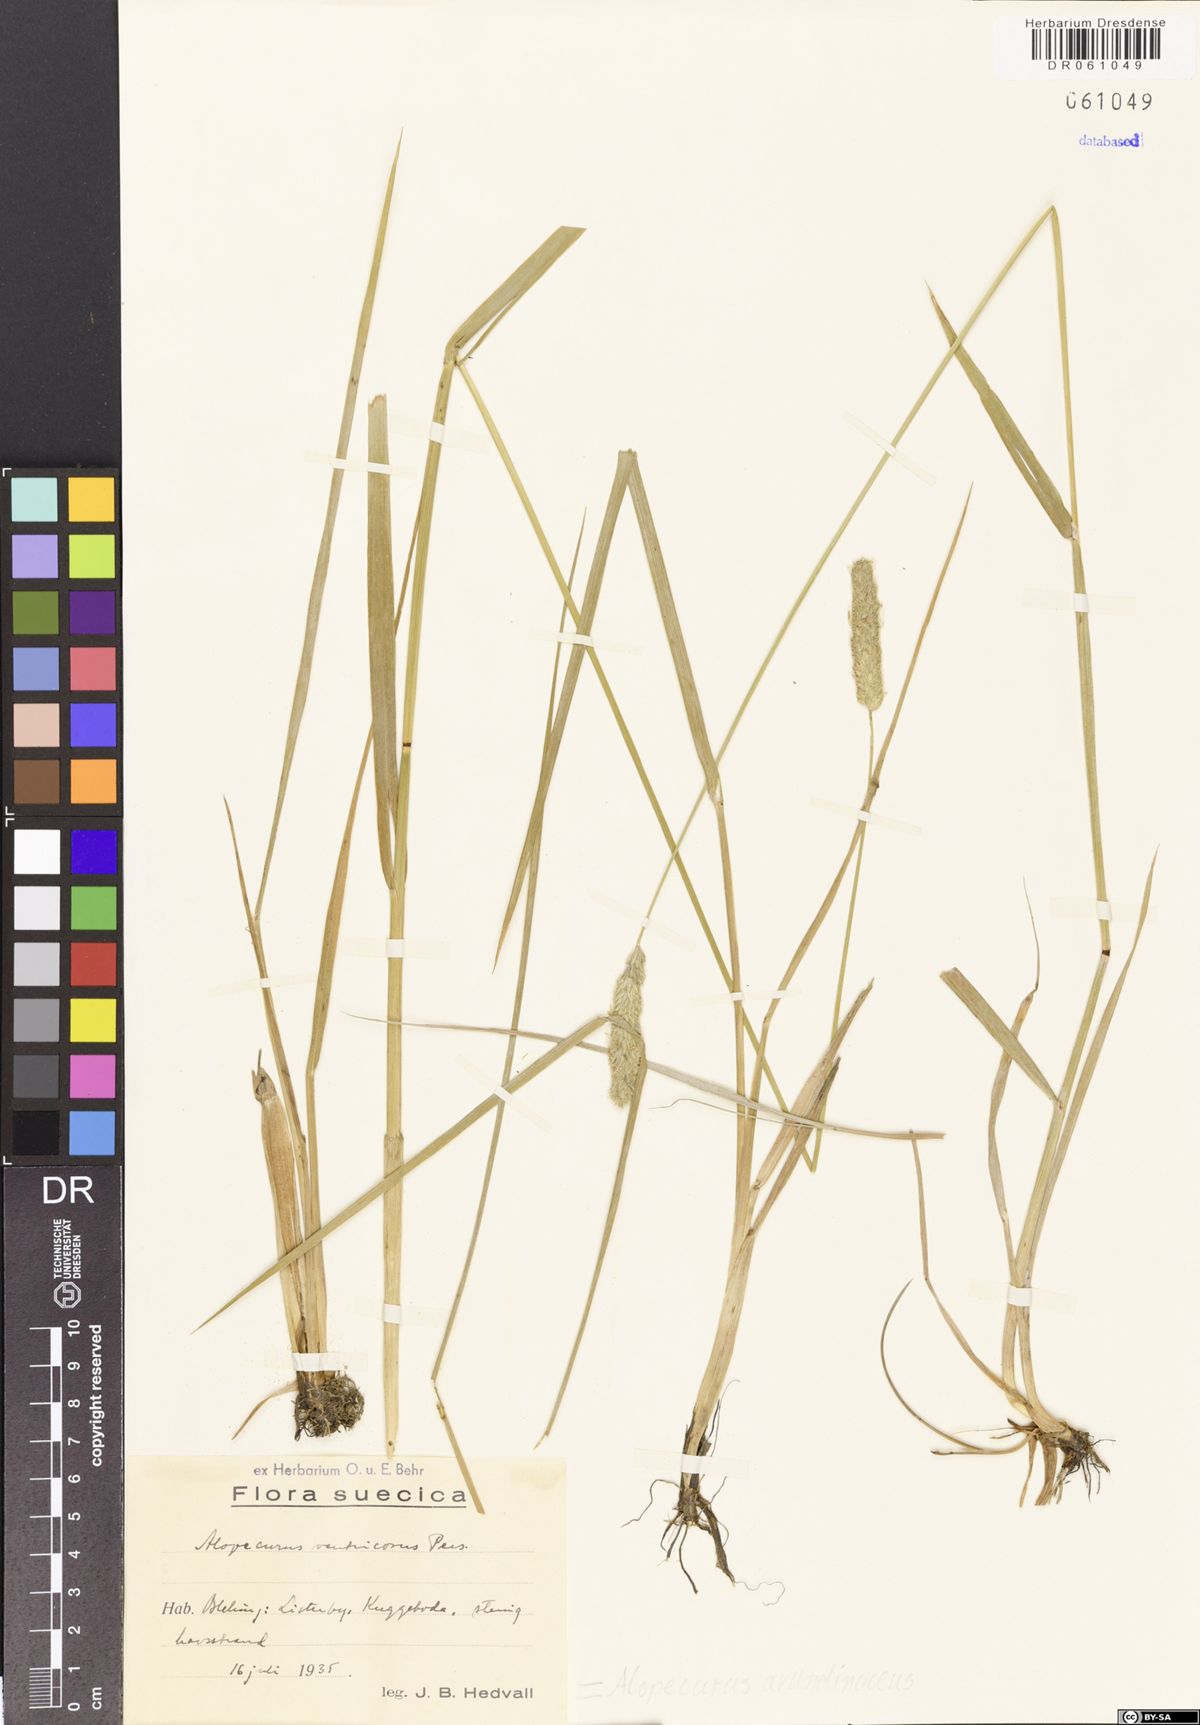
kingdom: Plantae
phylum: Tracheophyta
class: Liliopsida
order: Poales
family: Poaceae
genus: Alopecurus
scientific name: Alopecurus arundinaceus
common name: Creeping meadow foxtail
